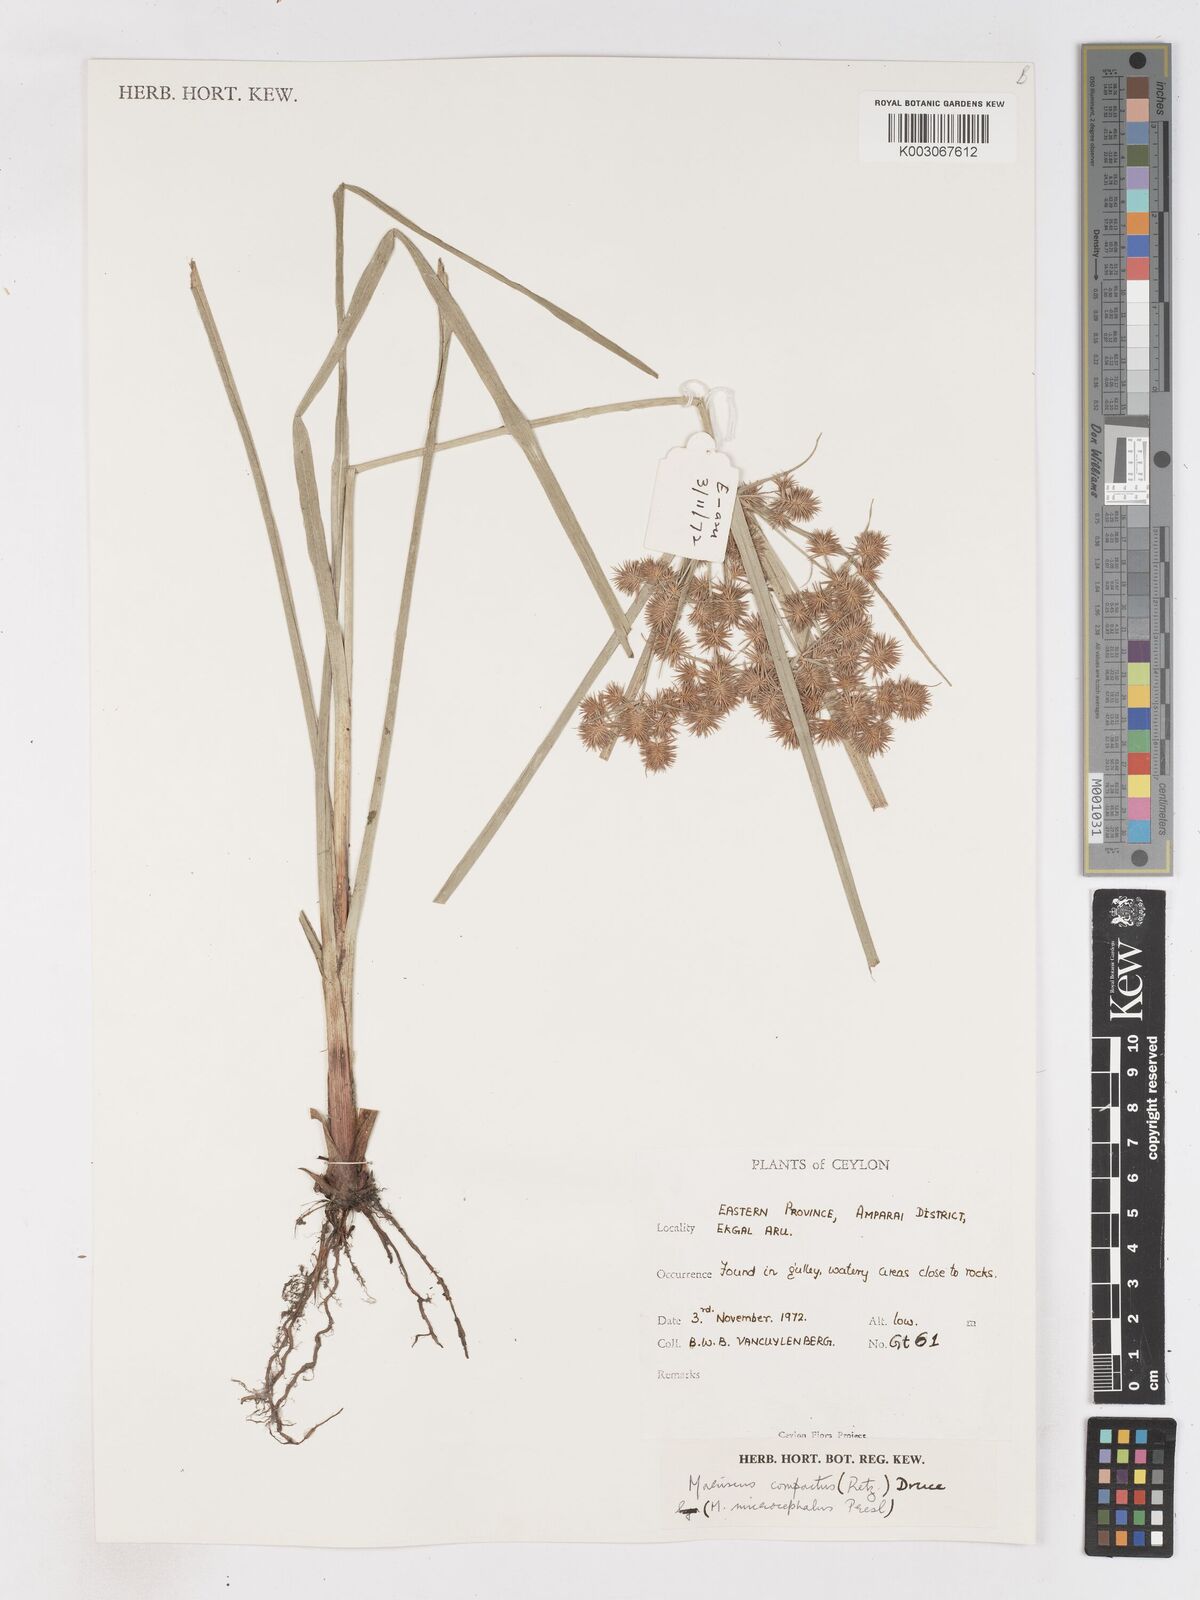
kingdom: Plantae
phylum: Tracheophyta
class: Liliopsida
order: Poales
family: Cyperaceae
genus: Cyperus
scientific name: Cyperus compactus
